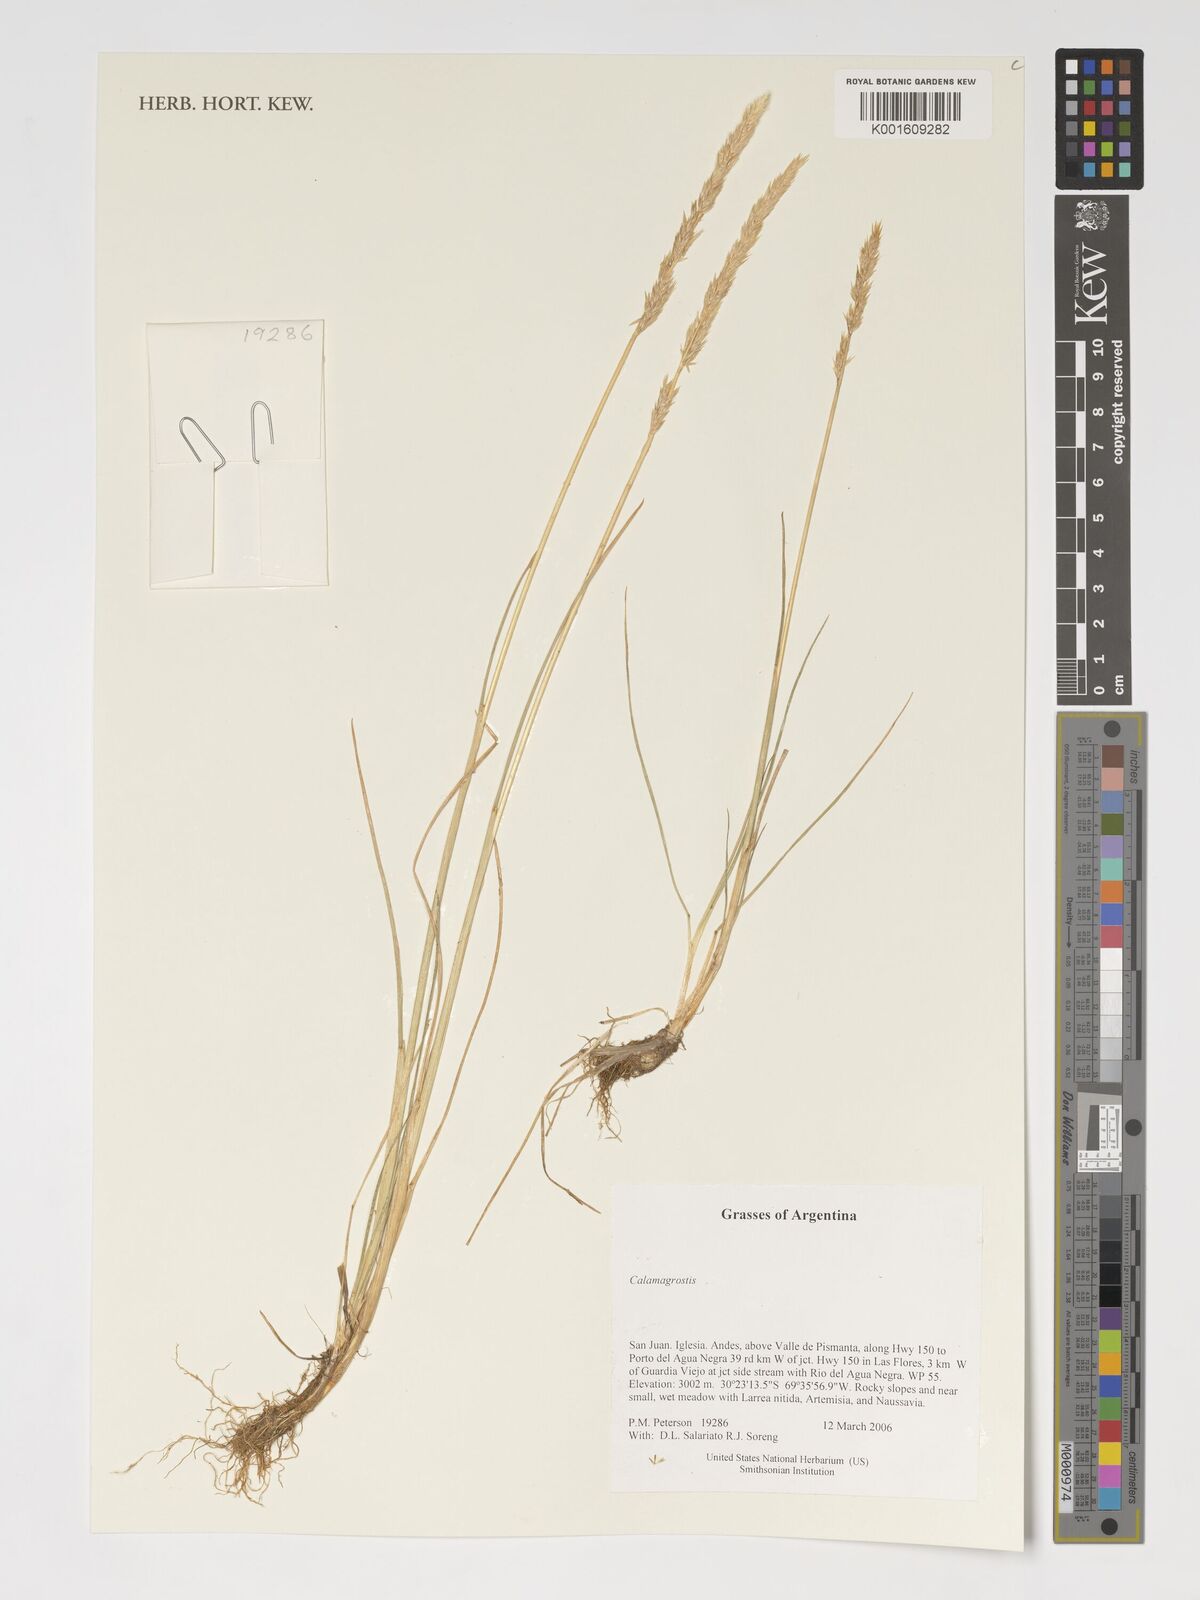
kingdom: Plantae
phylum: Tracheophyta
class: Liliopsida
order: Poales
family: Poaceae
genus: Calamagrostis
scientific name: Calamagrostis
